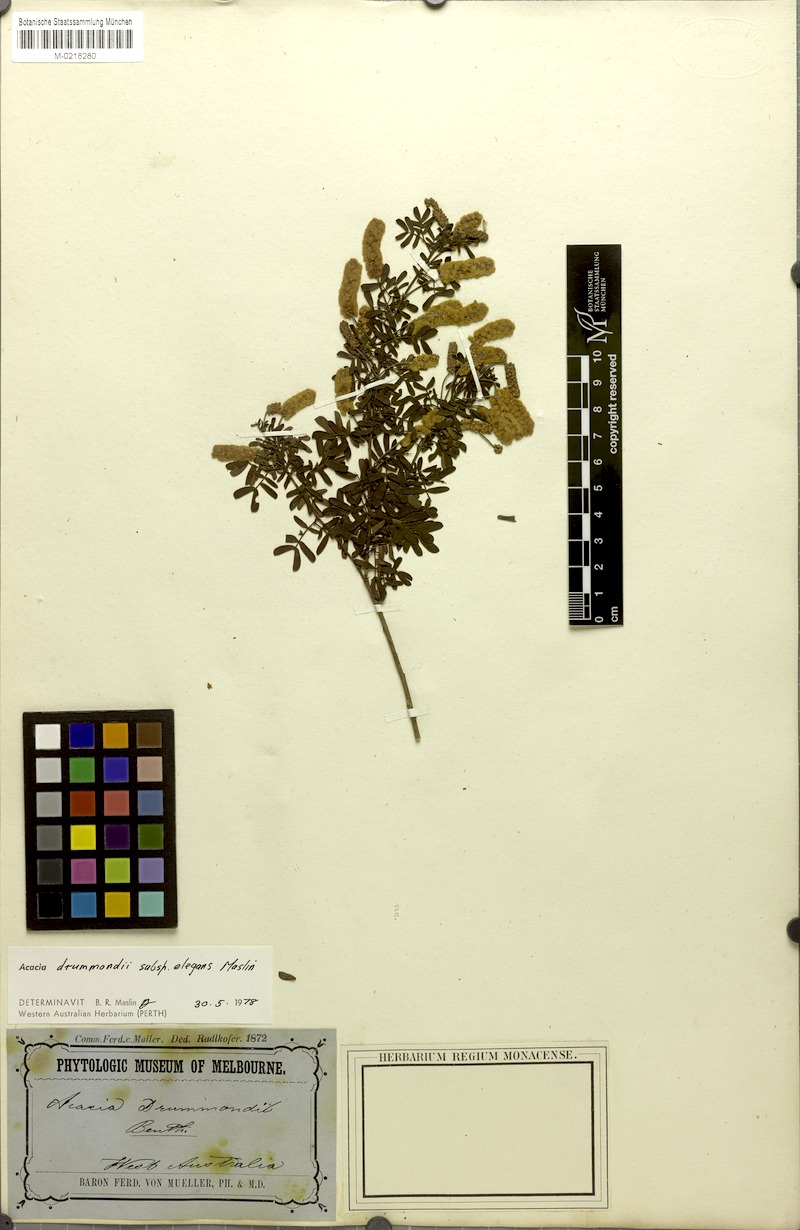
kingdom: Plantae
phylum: Tracheophyta
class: Magnoliopsida
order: Fabales
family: Fabaceae
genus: Acacia
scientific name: Acacia drummondii
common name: Drummond's wattle
